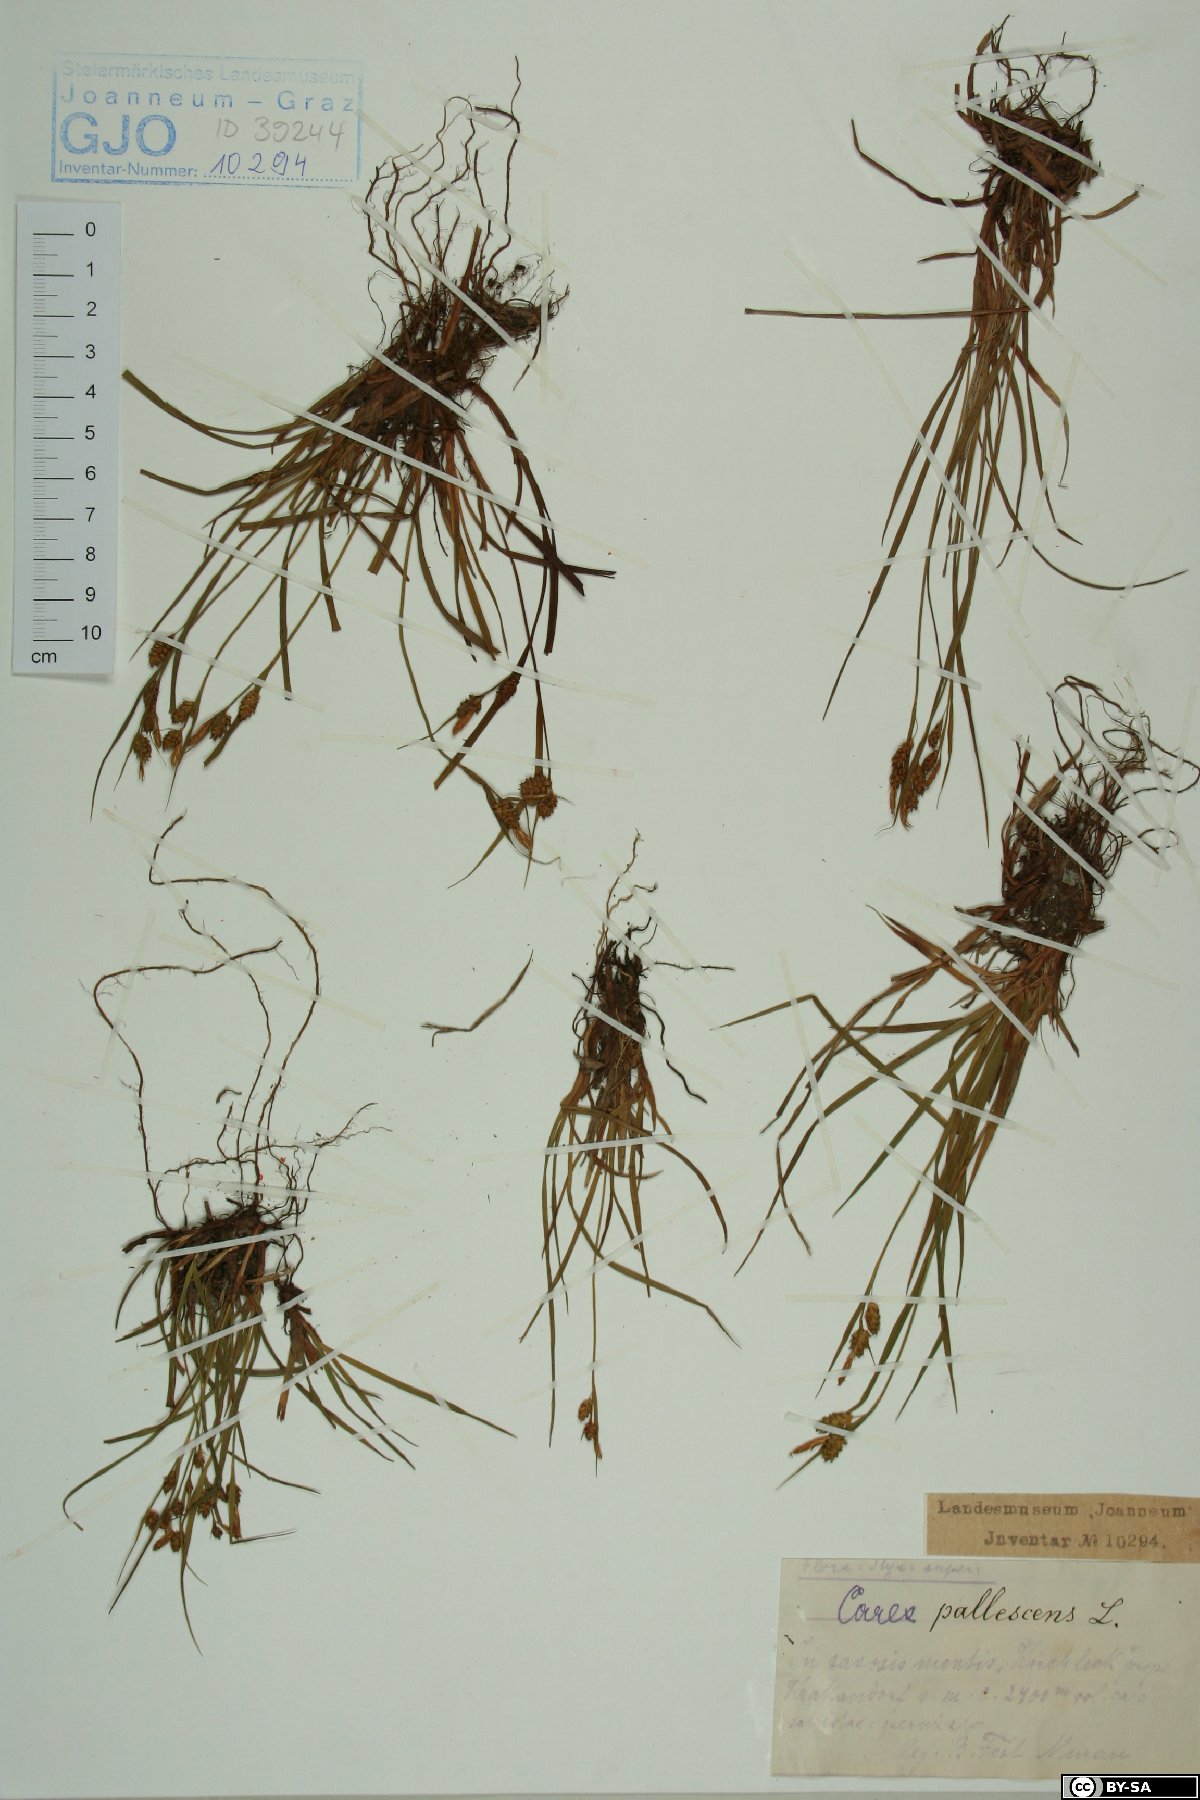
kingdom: Plantae
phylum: Tracheophyta
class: Liliopsida
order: Poales
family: Cyperaceae
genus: Carex
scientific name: Carex pallescens
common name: Pale sedge
